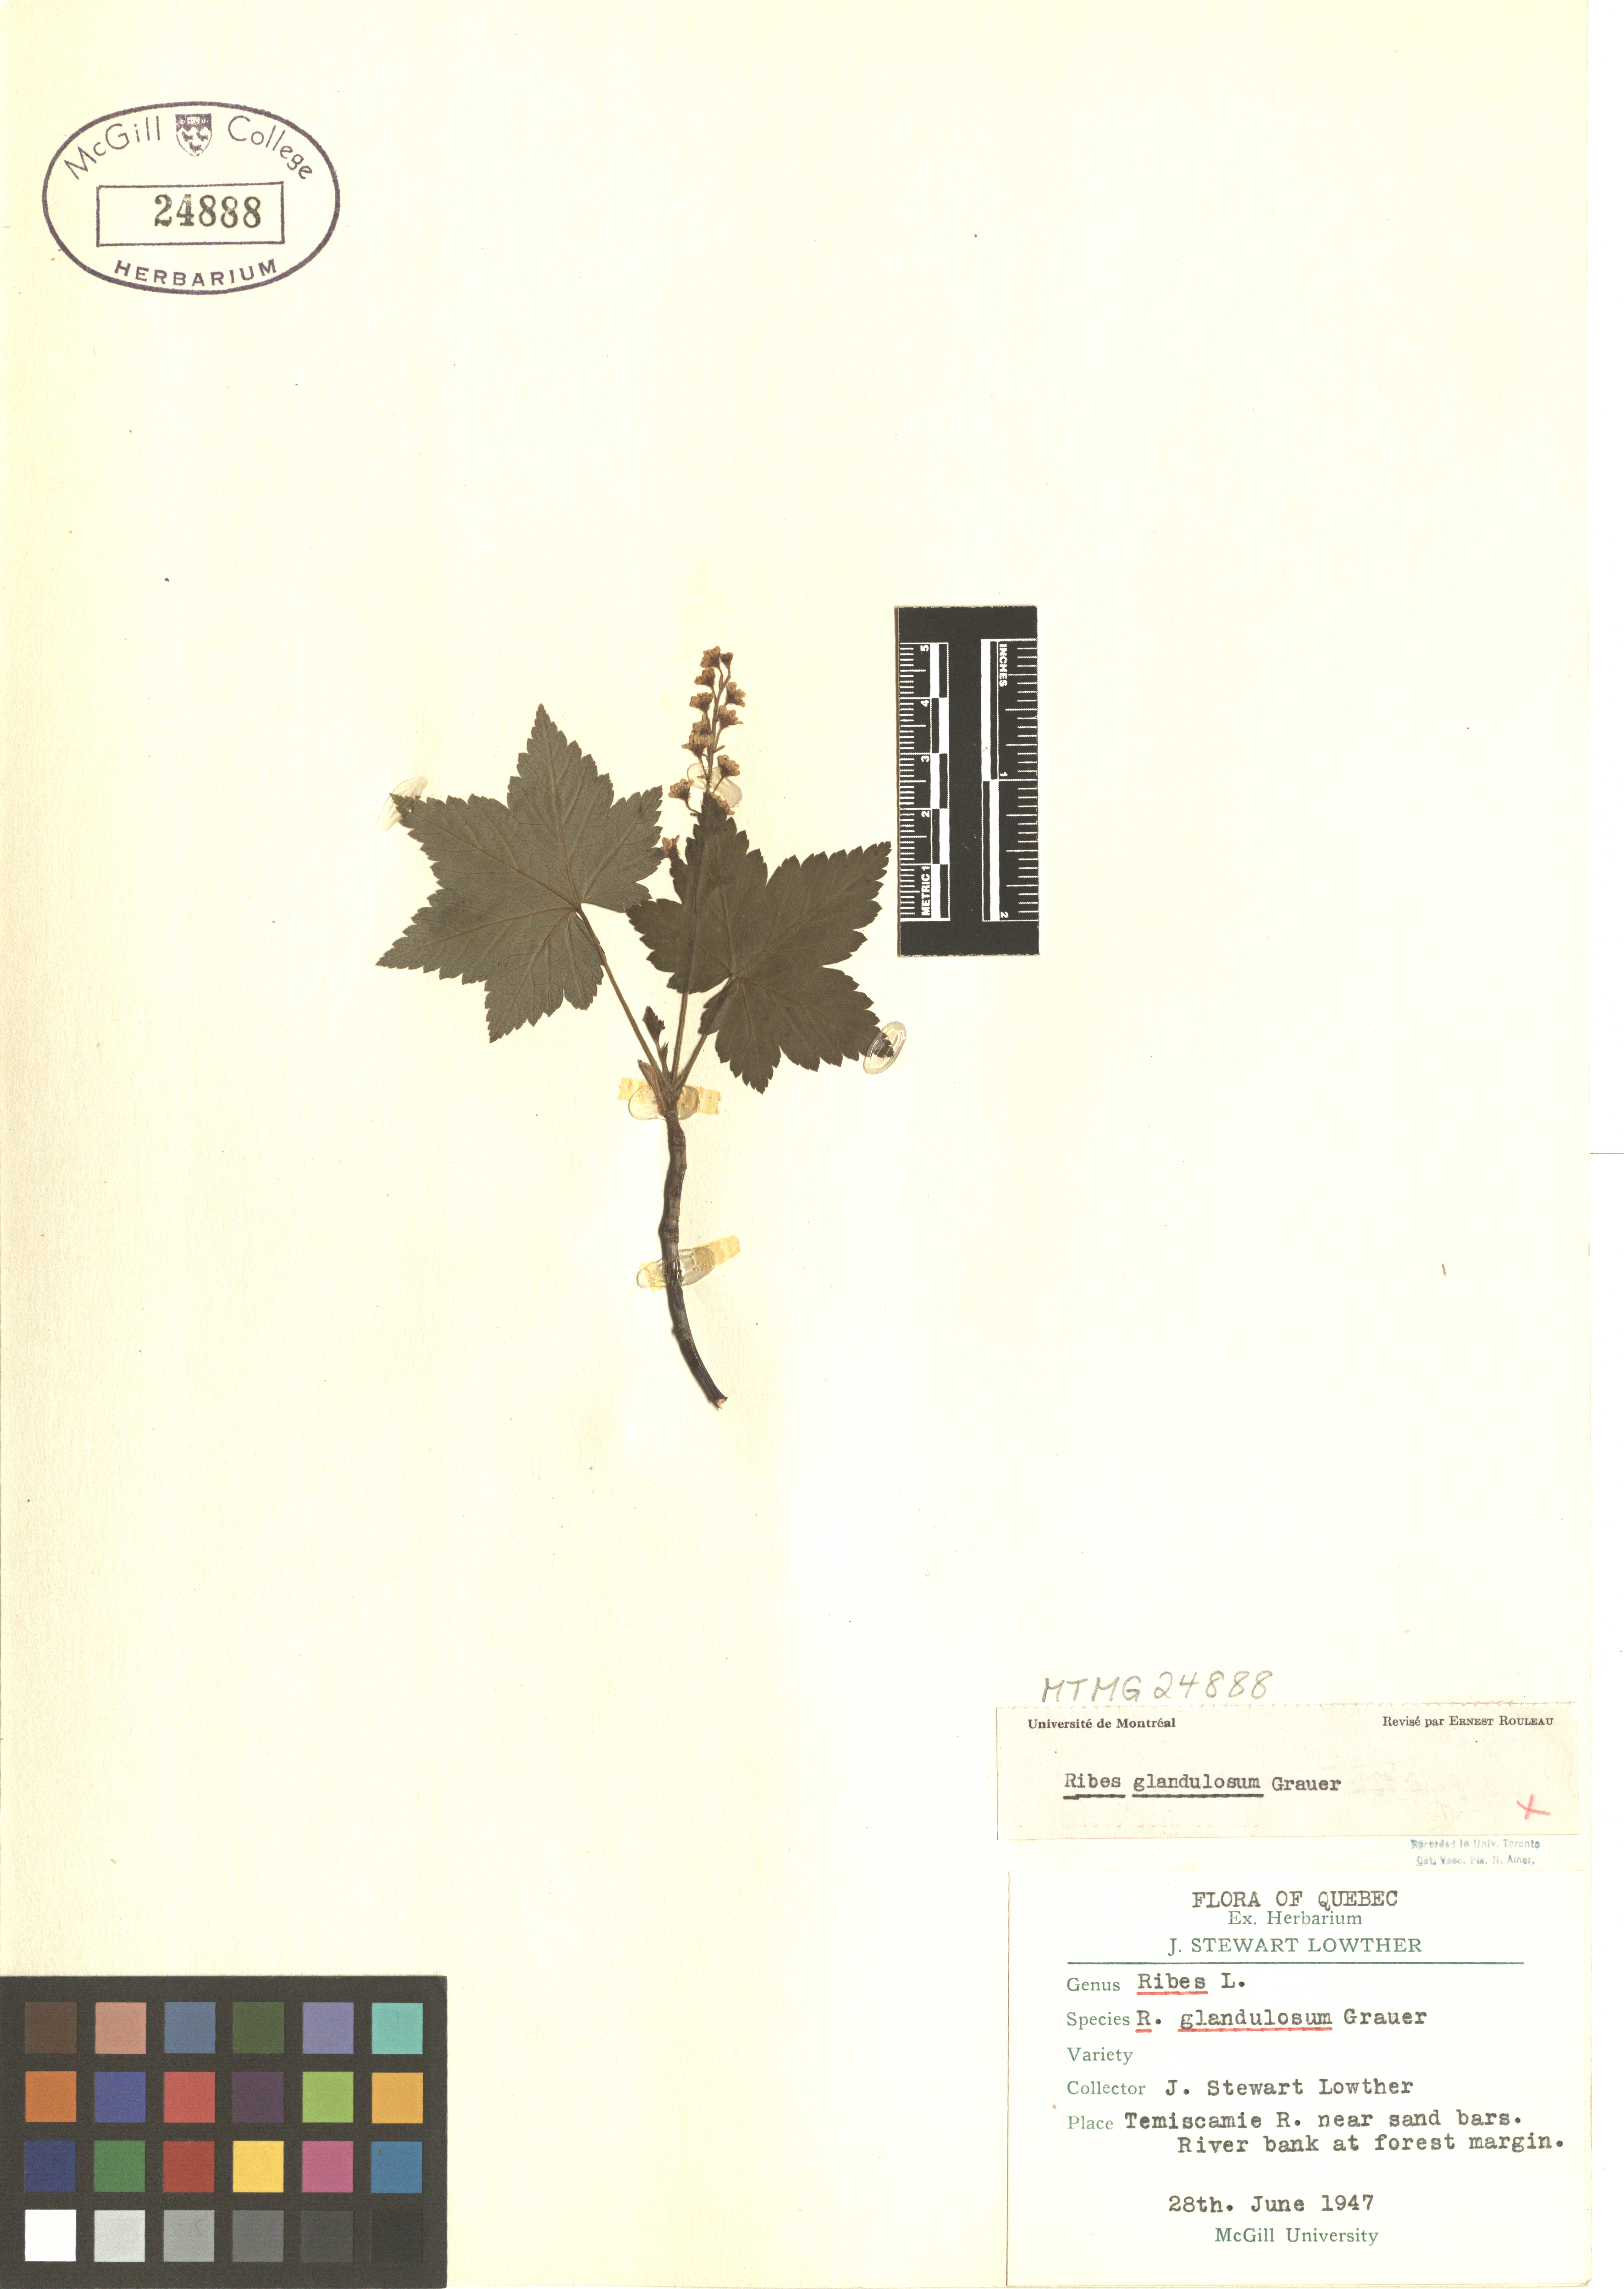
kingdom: Plantae
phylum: Tracheophyta
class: Magnoliopsida
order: Saxifragales
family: Grossulariaceae
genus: Ribes
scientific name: Ribes glandulosum
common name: Skunk currant
